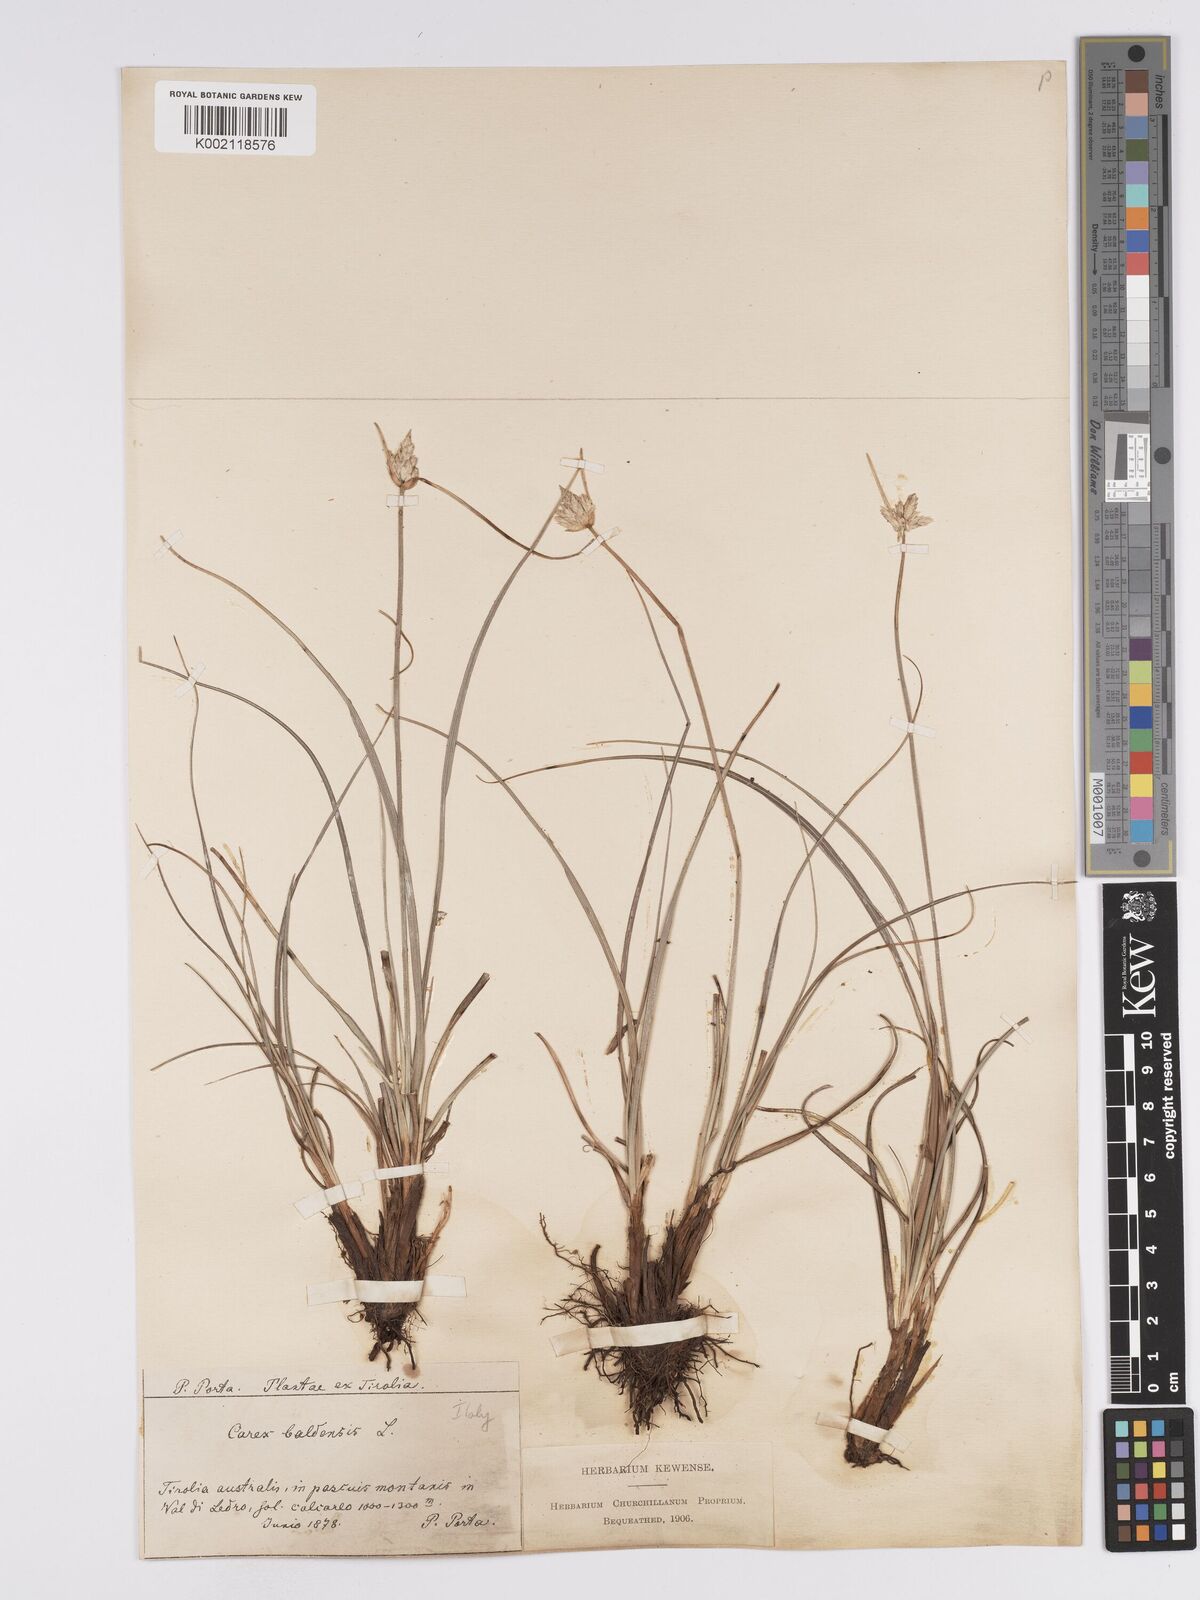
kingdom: Plantae
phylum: Tracheophyta
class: Liliopsida
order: Poales
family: Cyperaceae
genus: Carex
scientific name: Carex baldensis
